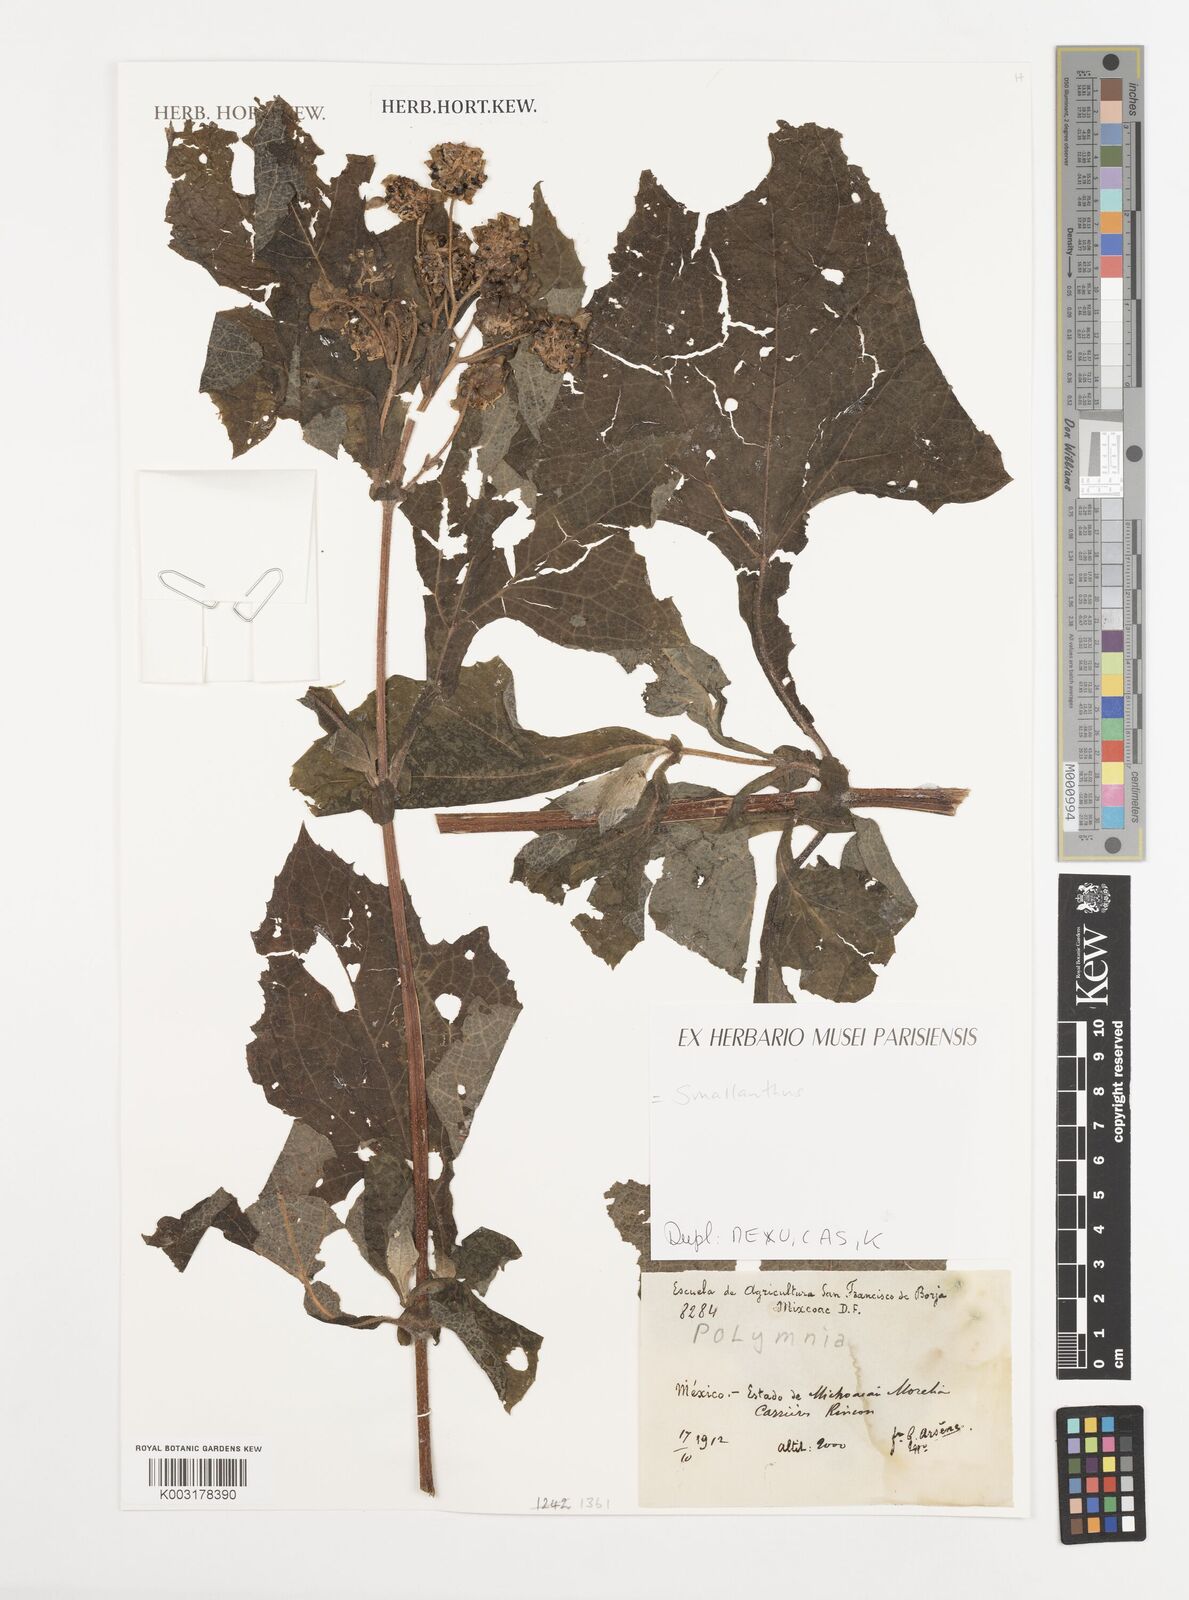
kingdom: Plantae
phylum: Tracheophyta
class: Magnoliopsida
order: Asterales
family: Asteraceae
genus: Smallanthus
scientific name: Smallanthus maculatus
